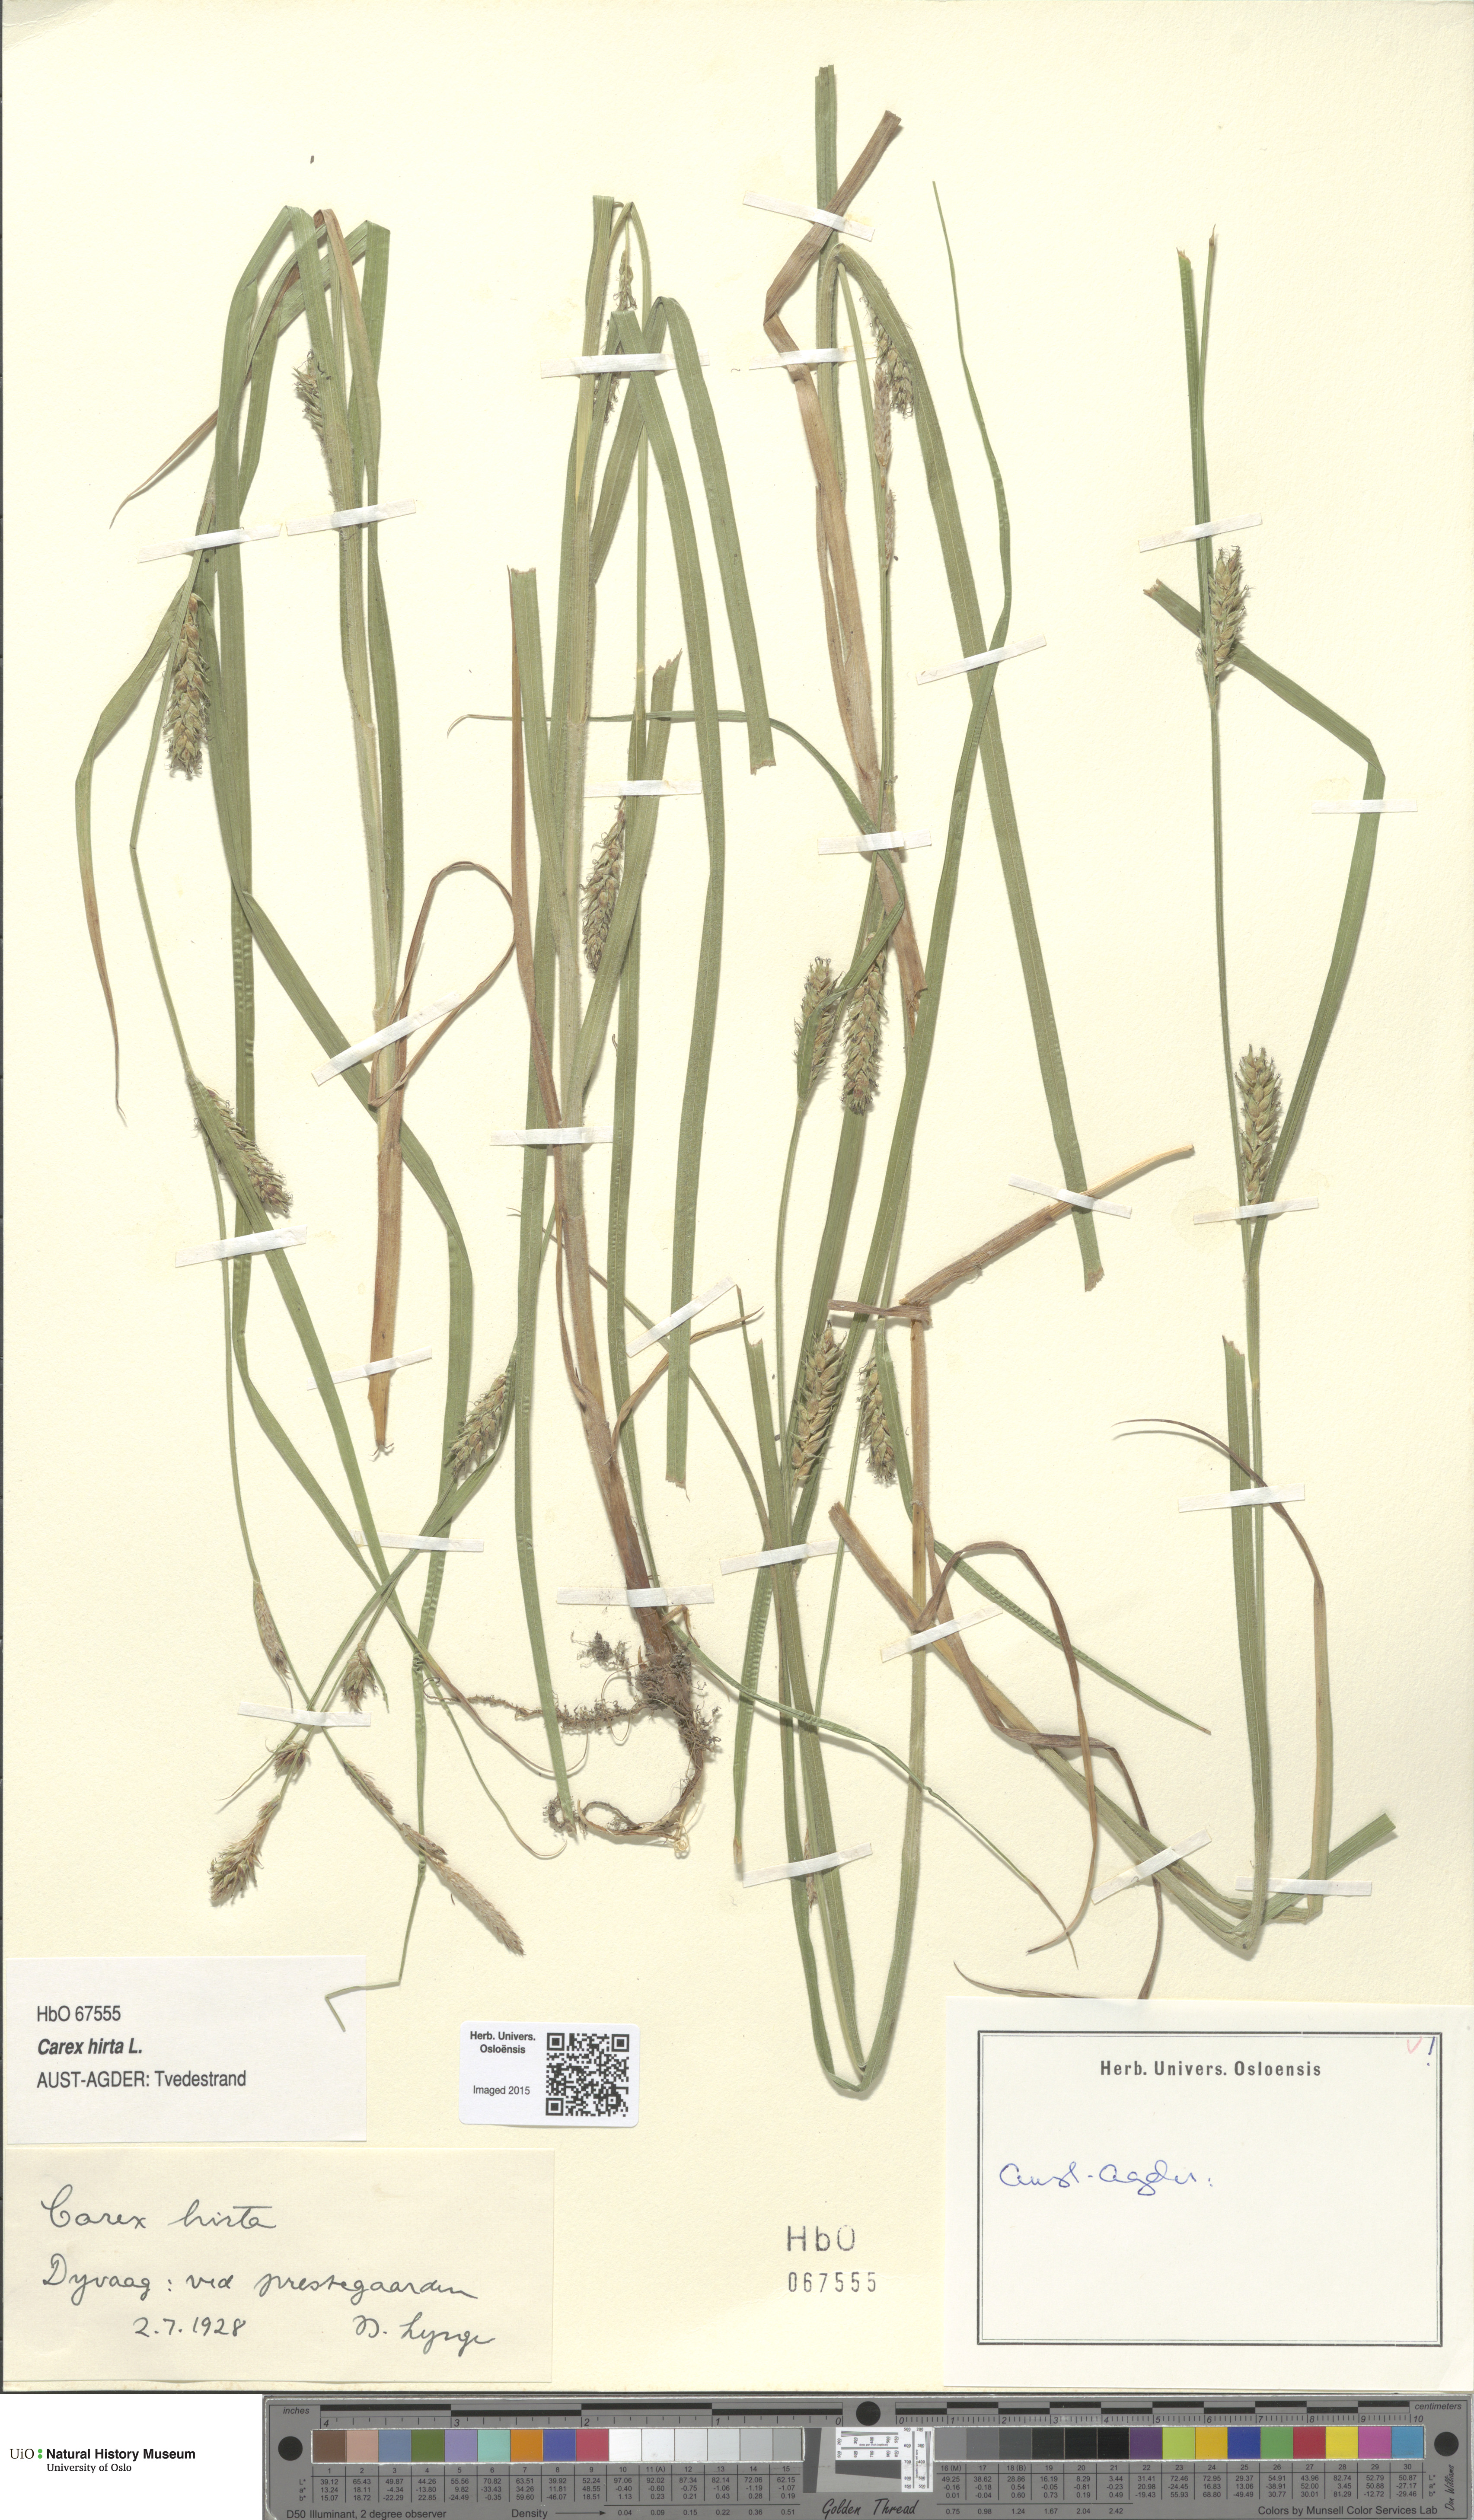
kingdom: Plantae
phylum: Tracheophyta
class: Liliopsida
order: Poales
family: Cyperaceae
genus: Carex
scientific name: Carex hirta
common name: Hairy sedge
